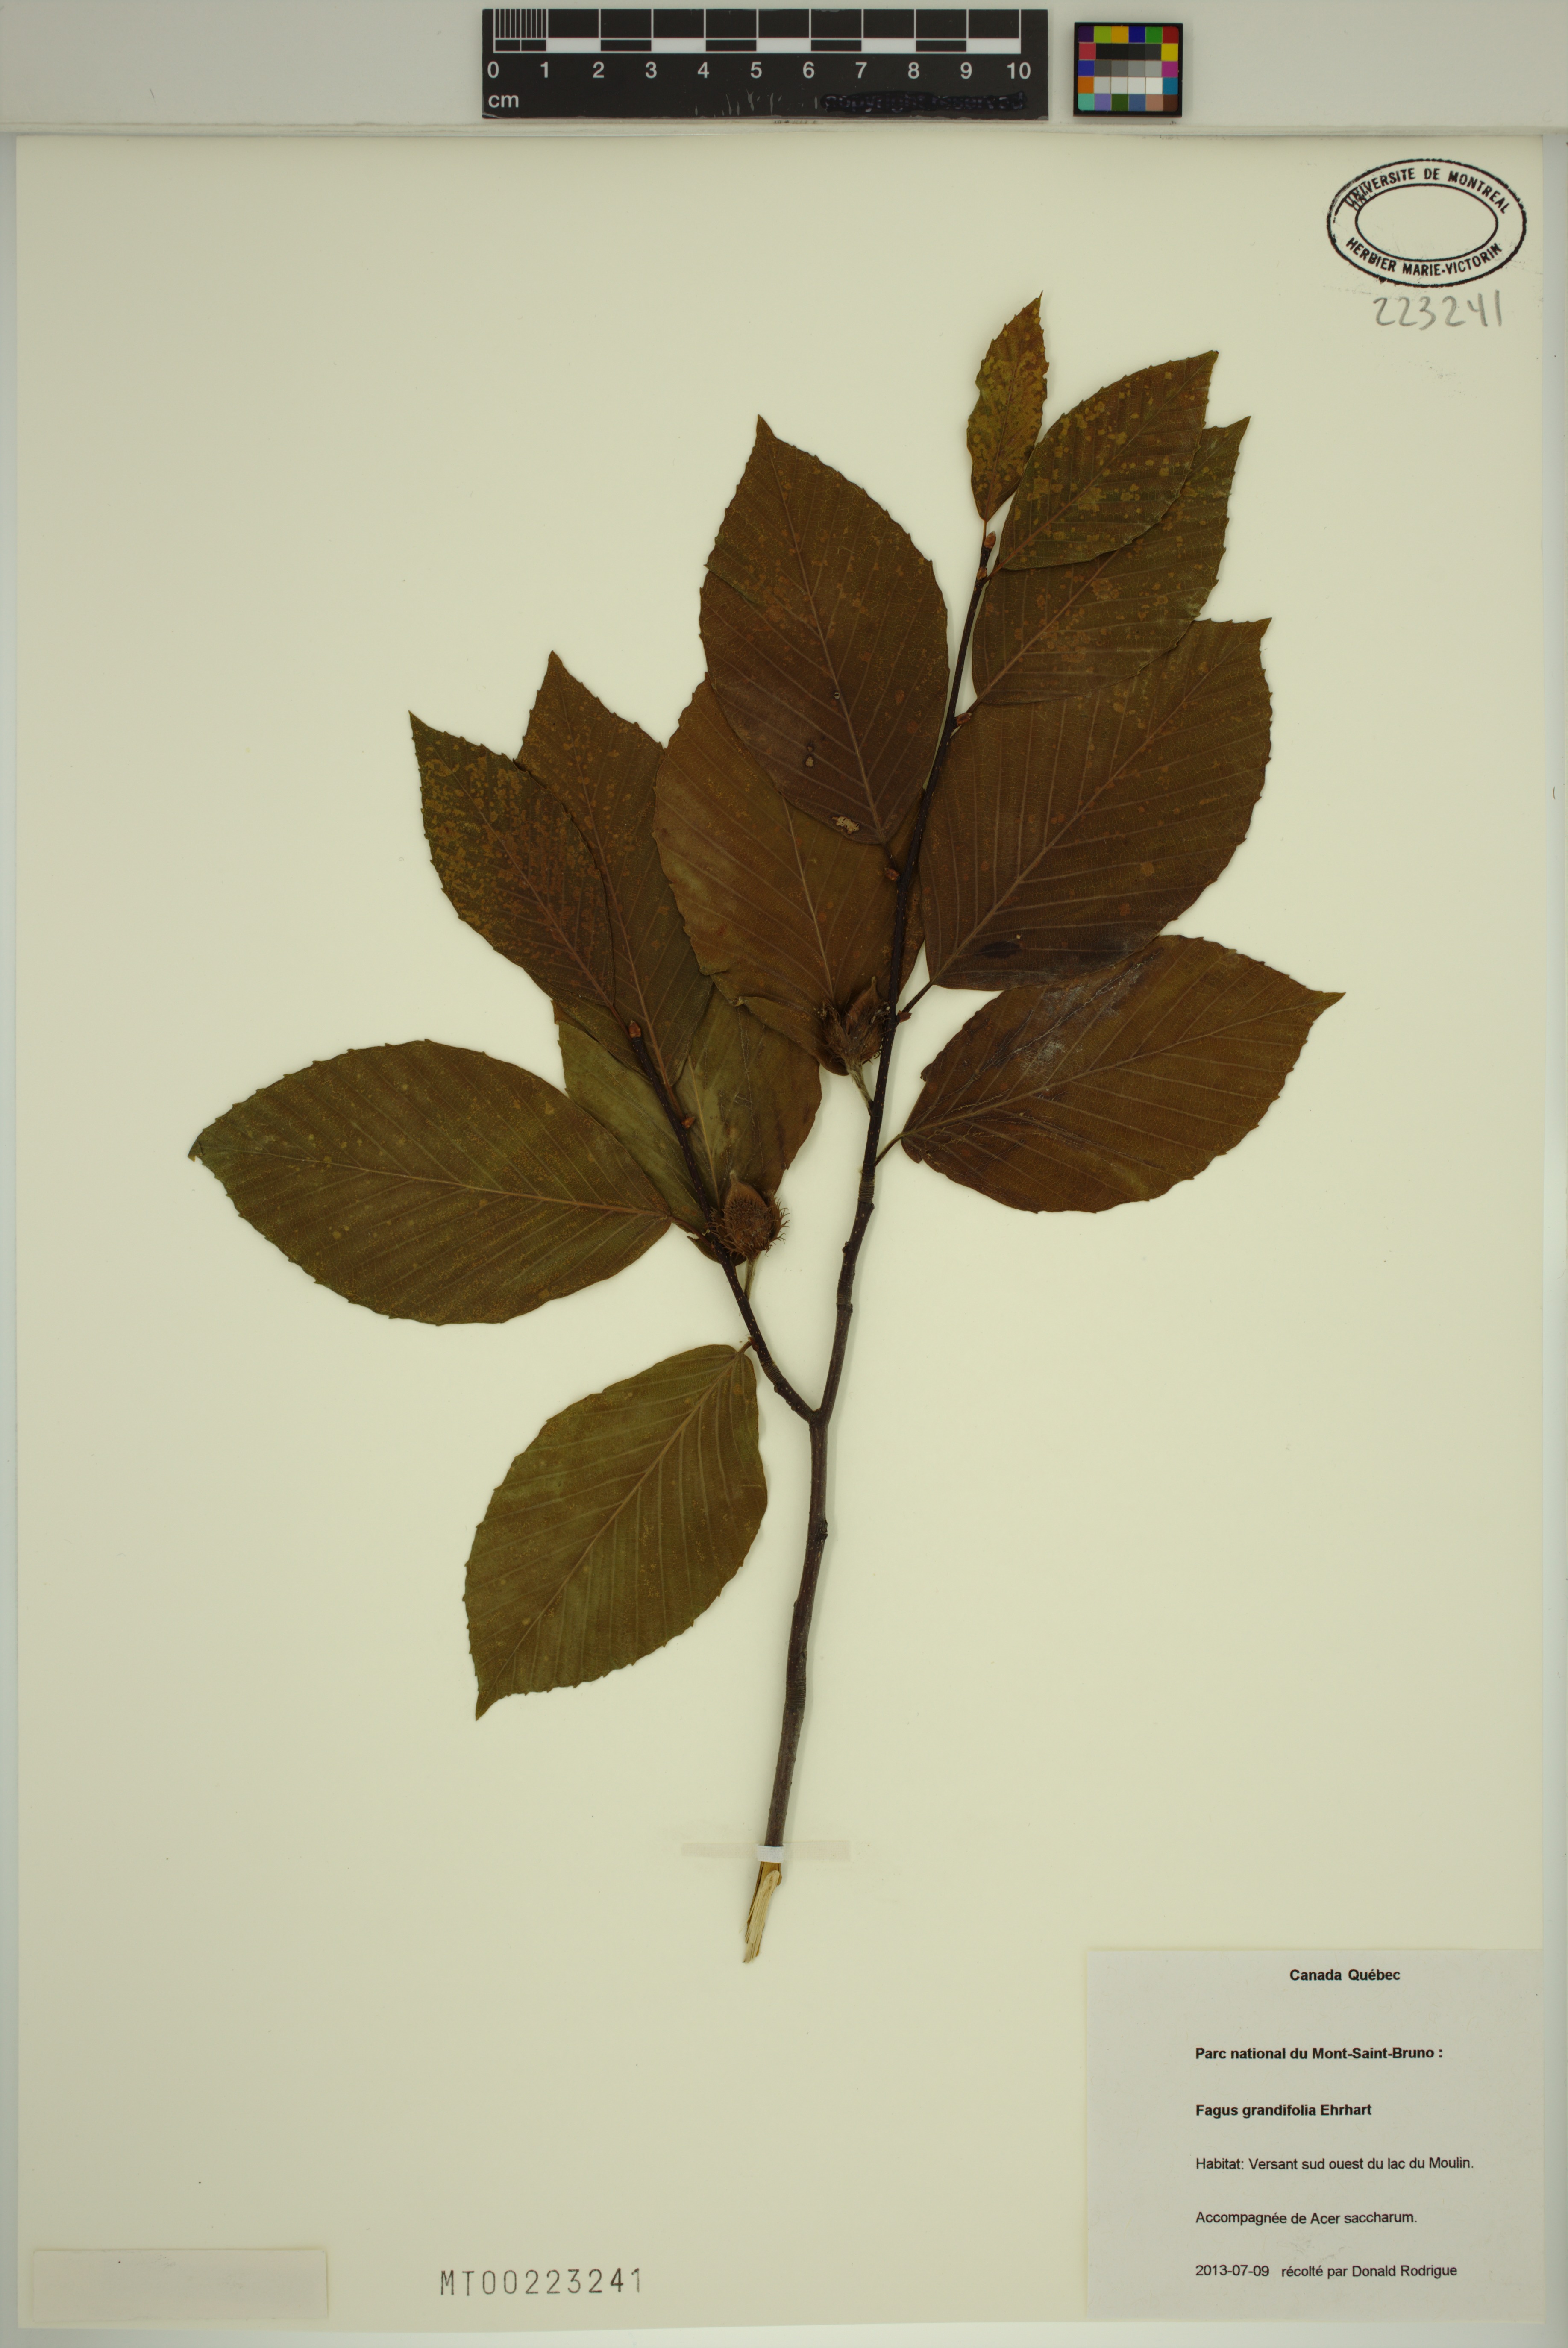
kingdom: Plantae
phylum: Tracheophyta
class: Magnoliopsida
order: Fagales
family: Fagaceae
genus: Fagus
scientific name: Fagus grandifolia
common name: American beech
